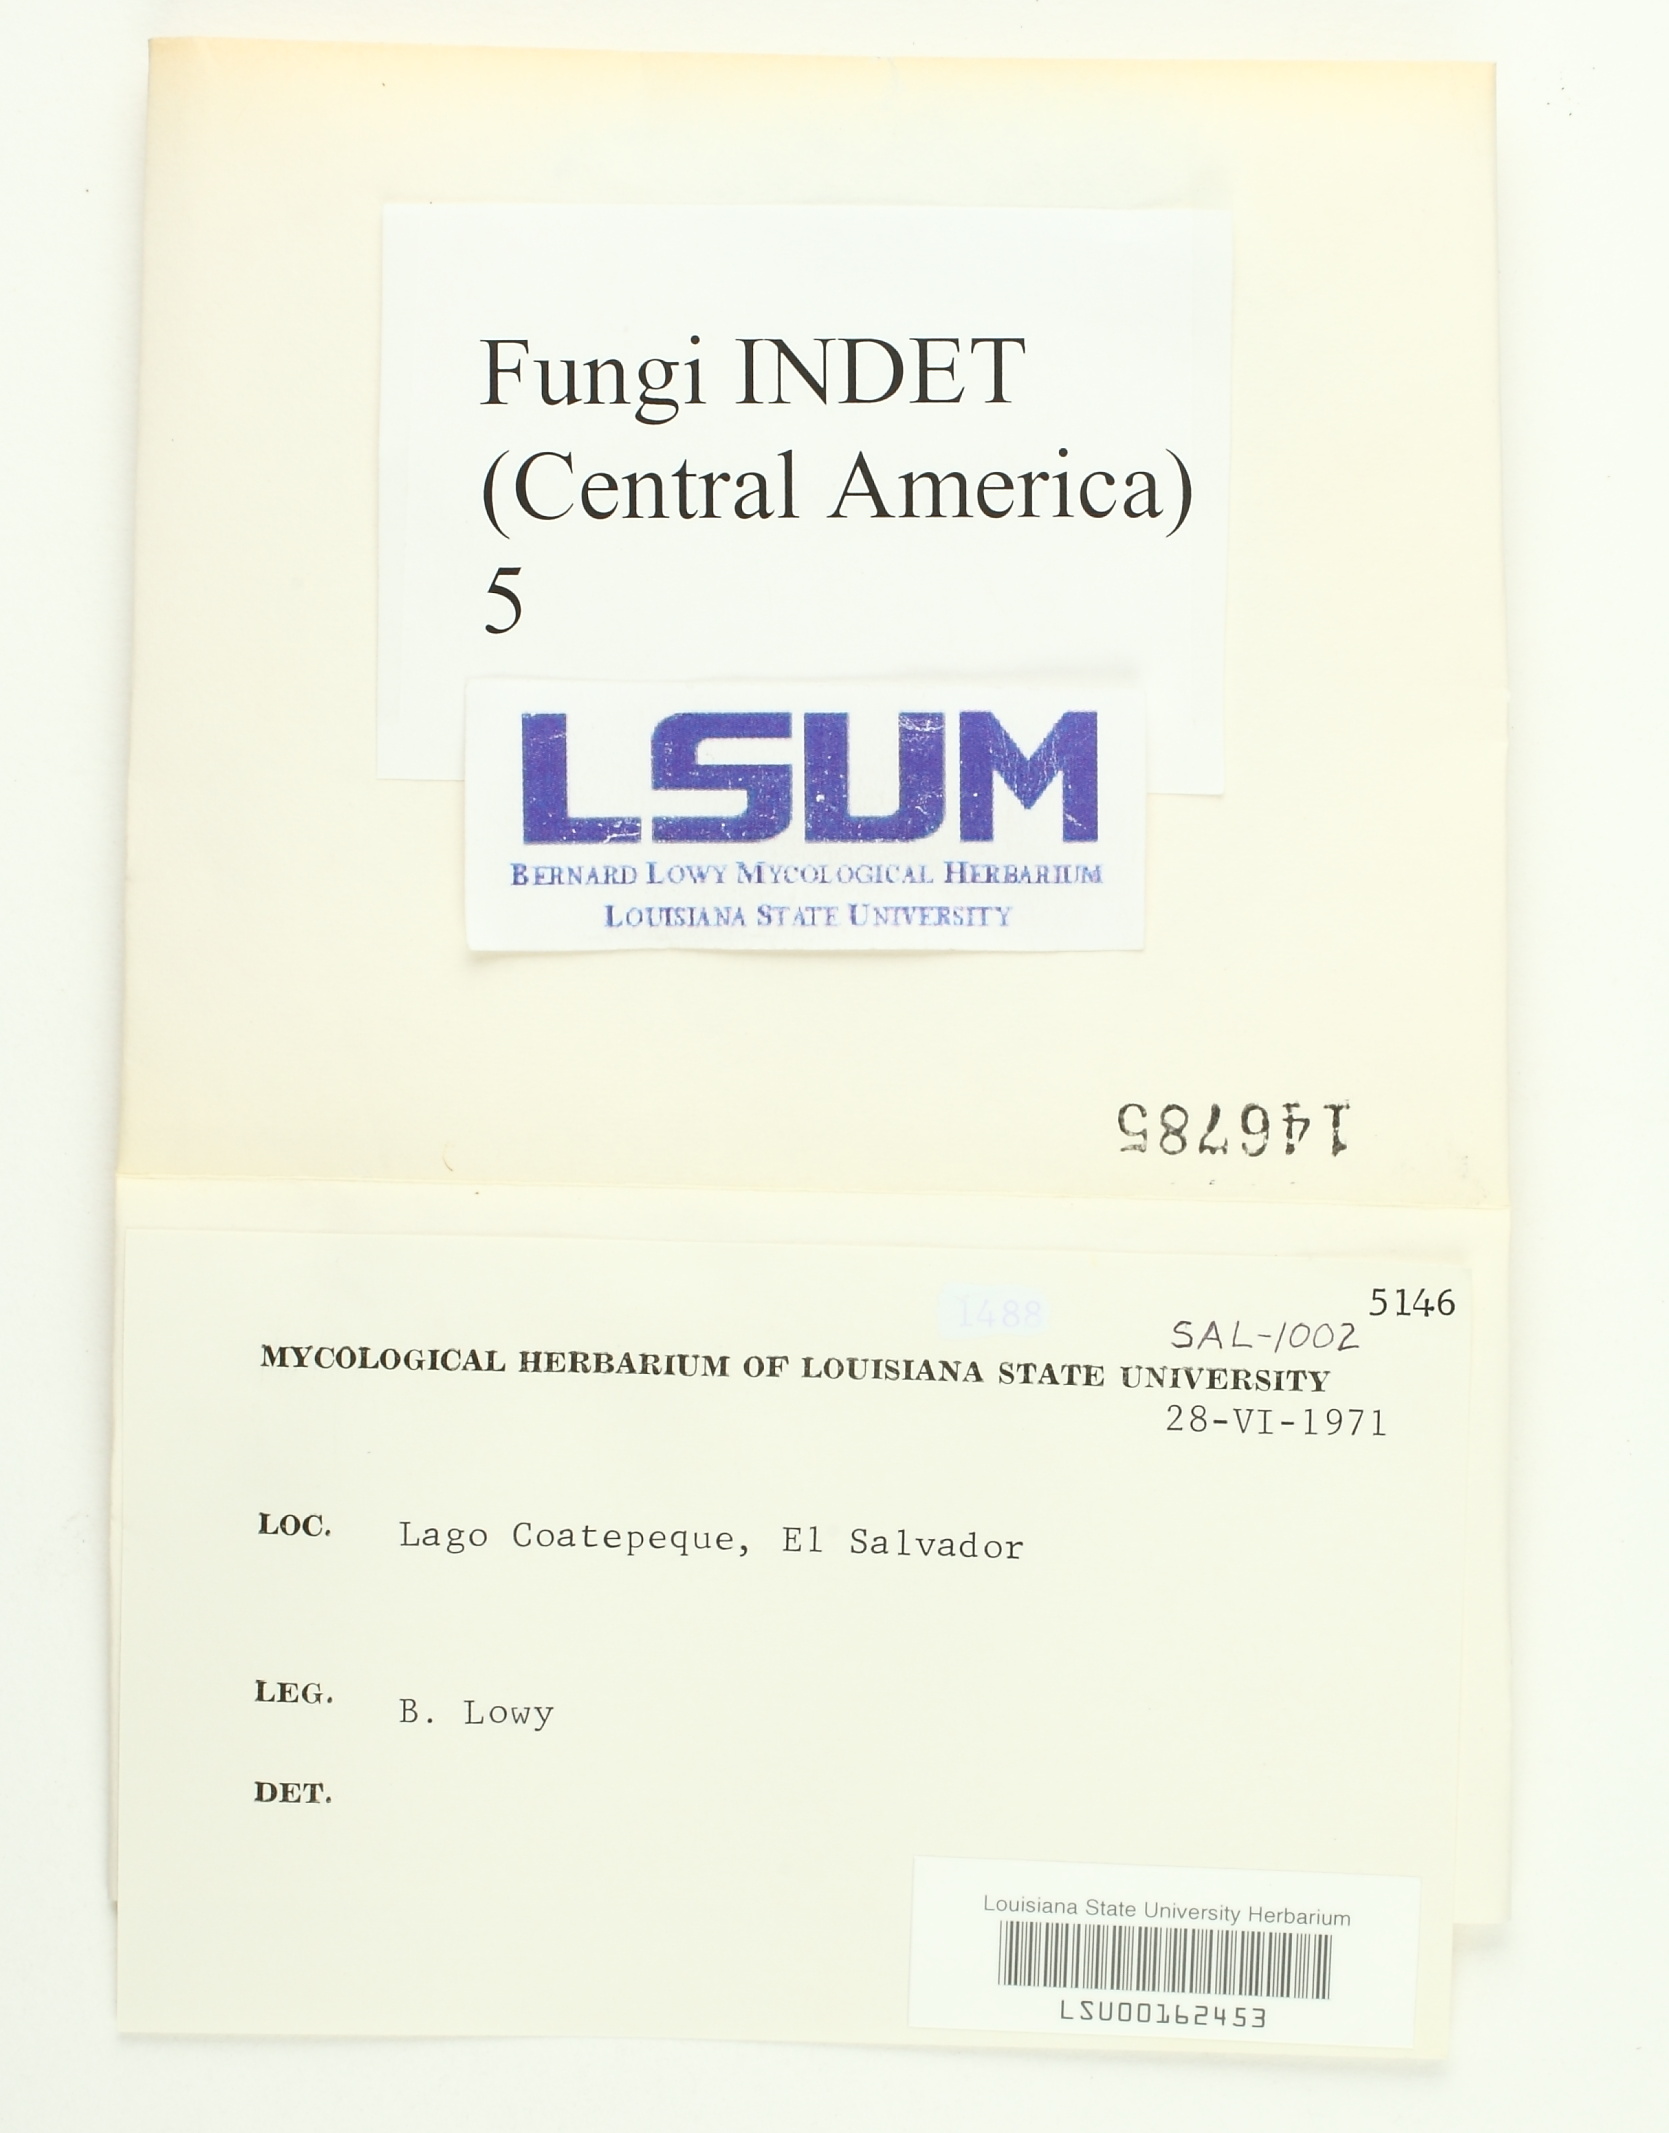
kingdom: Fungi
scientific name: Fungi
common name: Fungi
